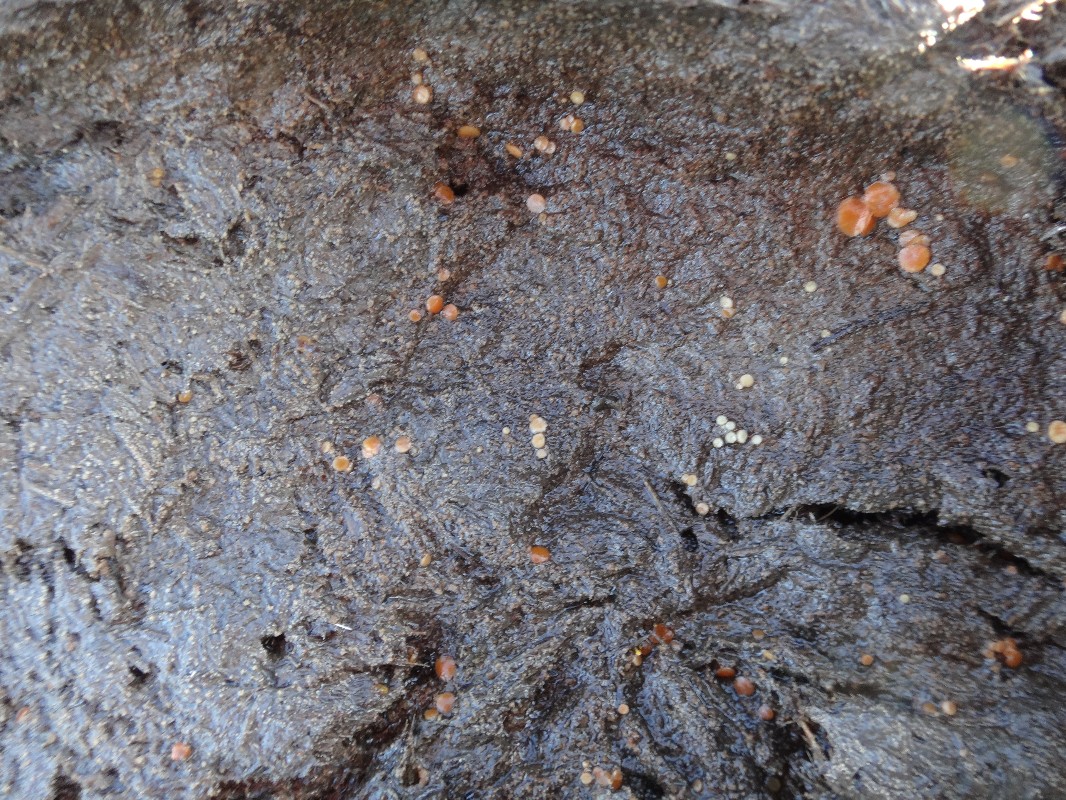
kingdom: Fungi
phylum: Ascomycota
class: Pezizomycetes
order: Pezizales
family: Pyronemataceae
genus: Cheilymenia
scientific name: Cheilymenia granulata
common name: møgbæger
